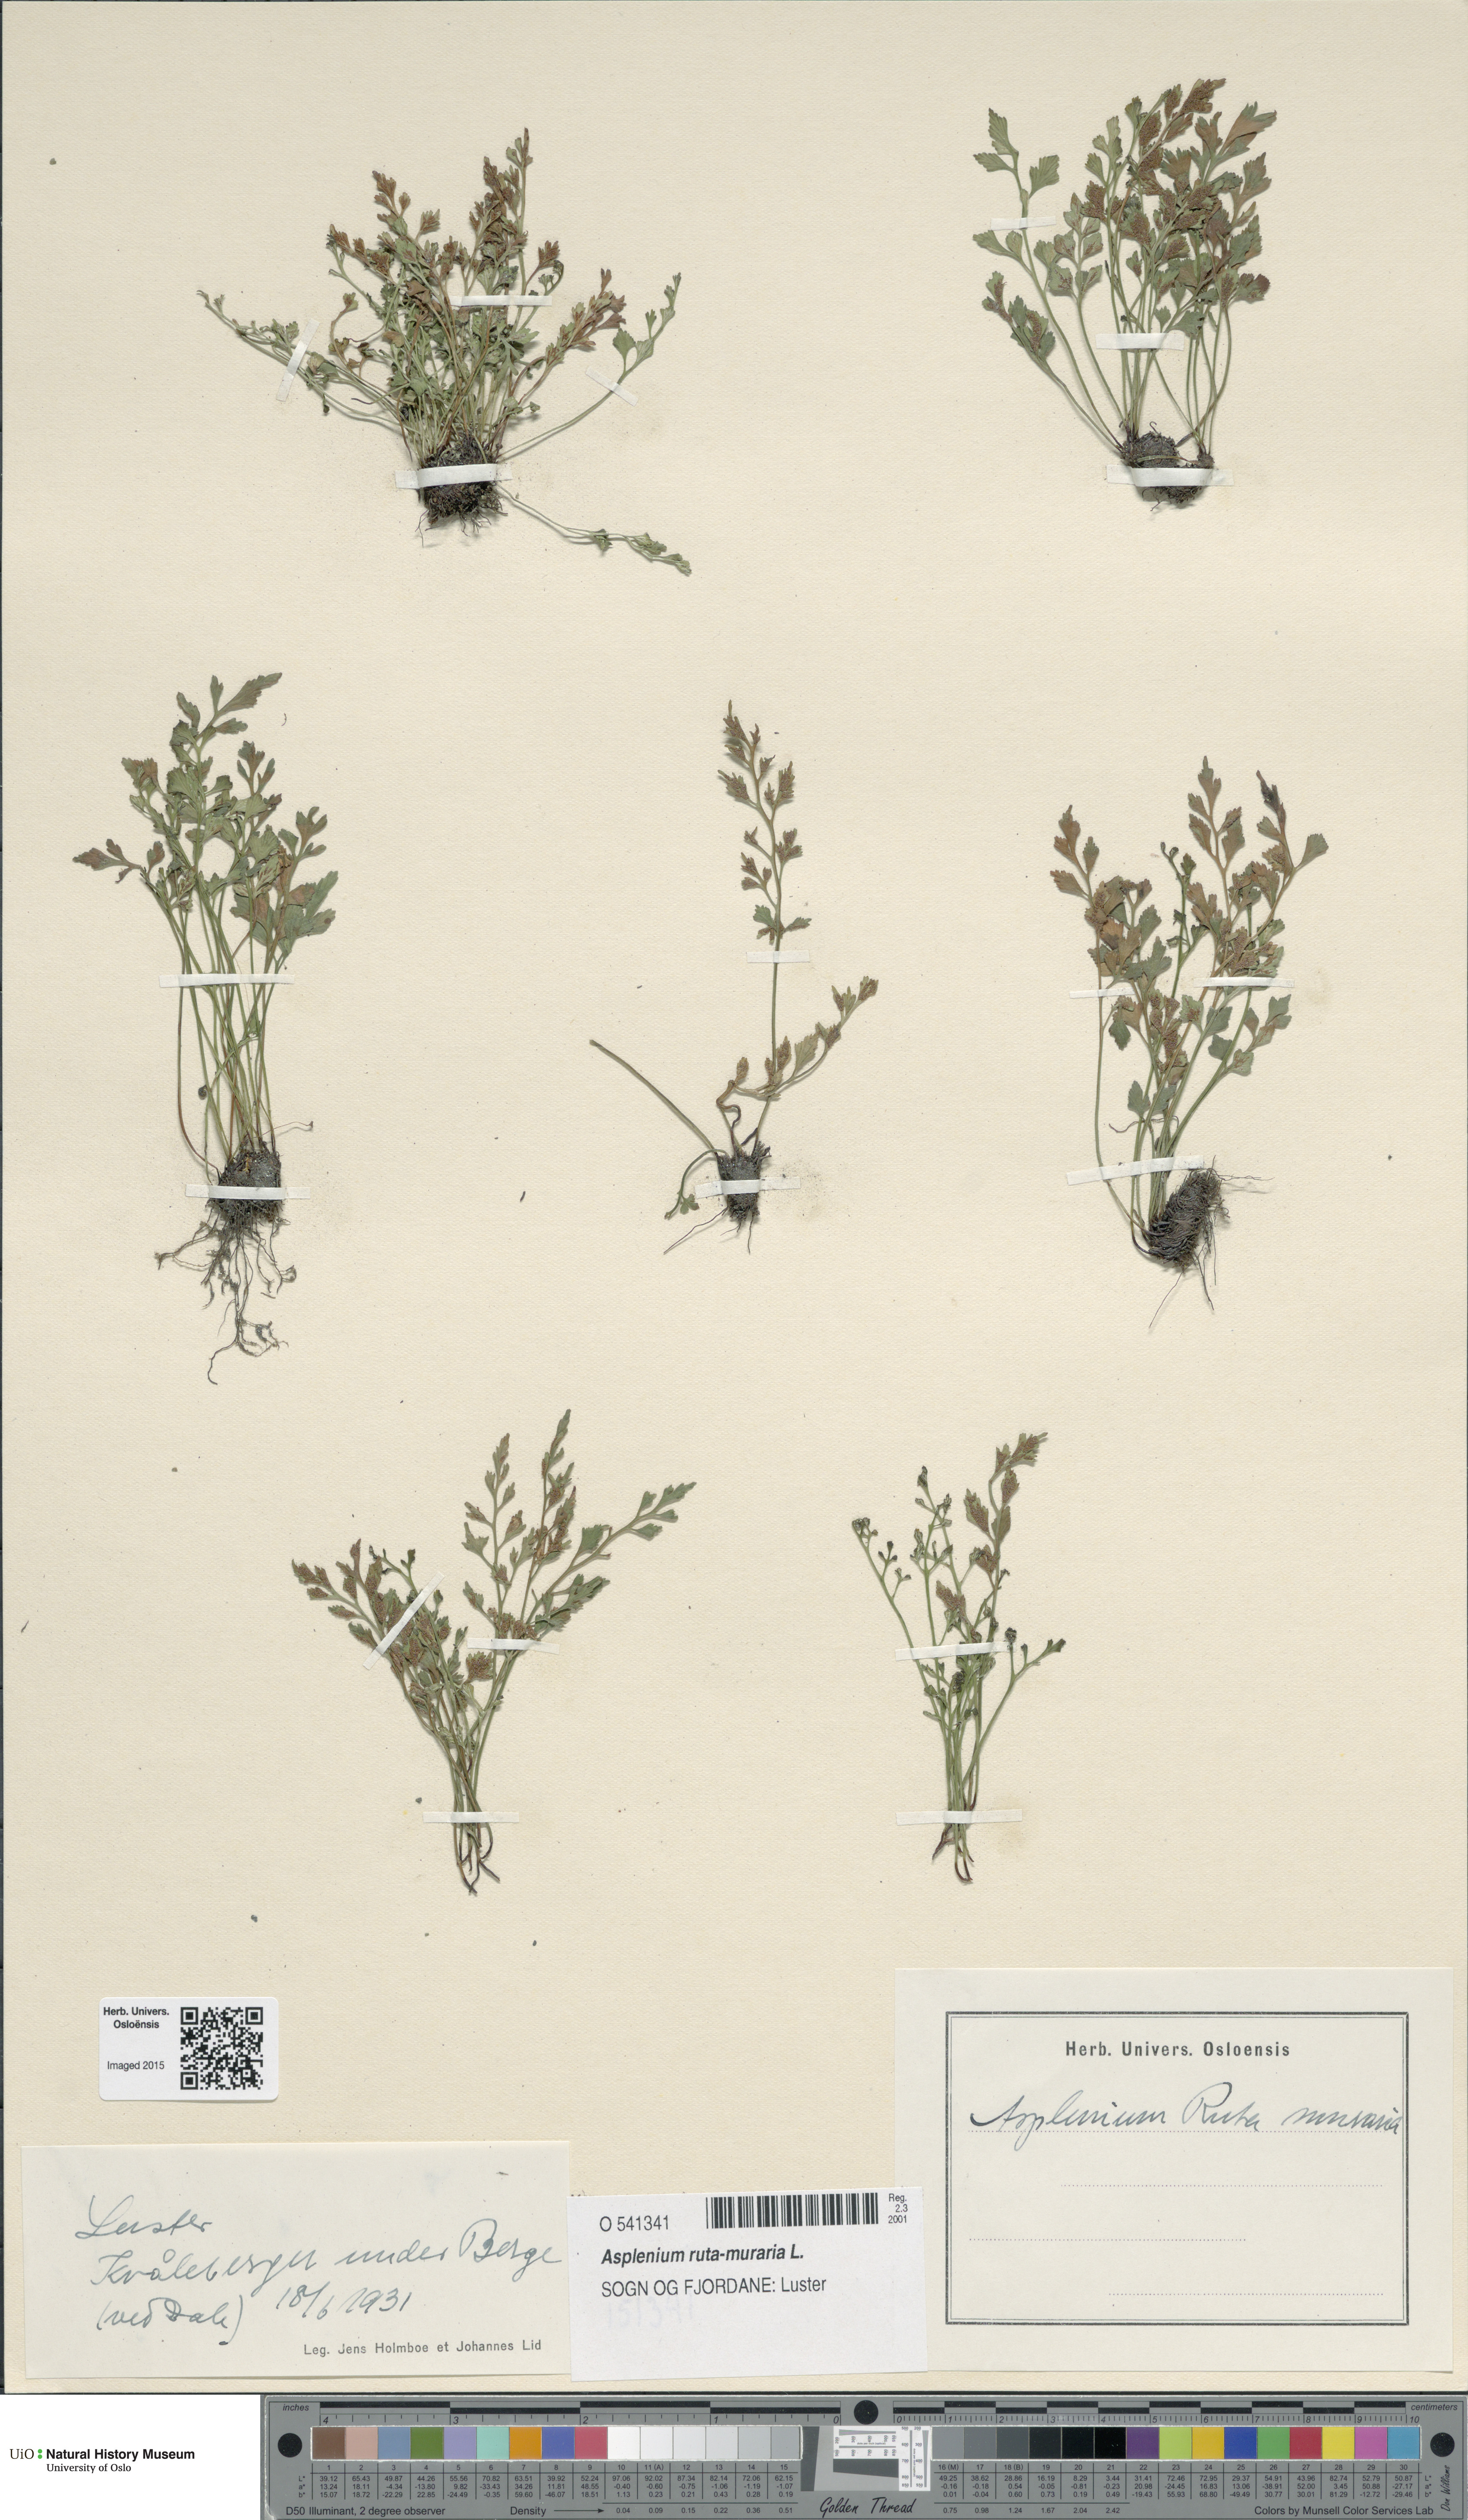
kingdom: Plantae
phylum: Tracheophyta
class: Polypodiopsida
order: Polypodiales
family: Aspleniaceae
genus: Asplenium
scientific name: Asplenium ruta-muraria
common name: Wall-rue
